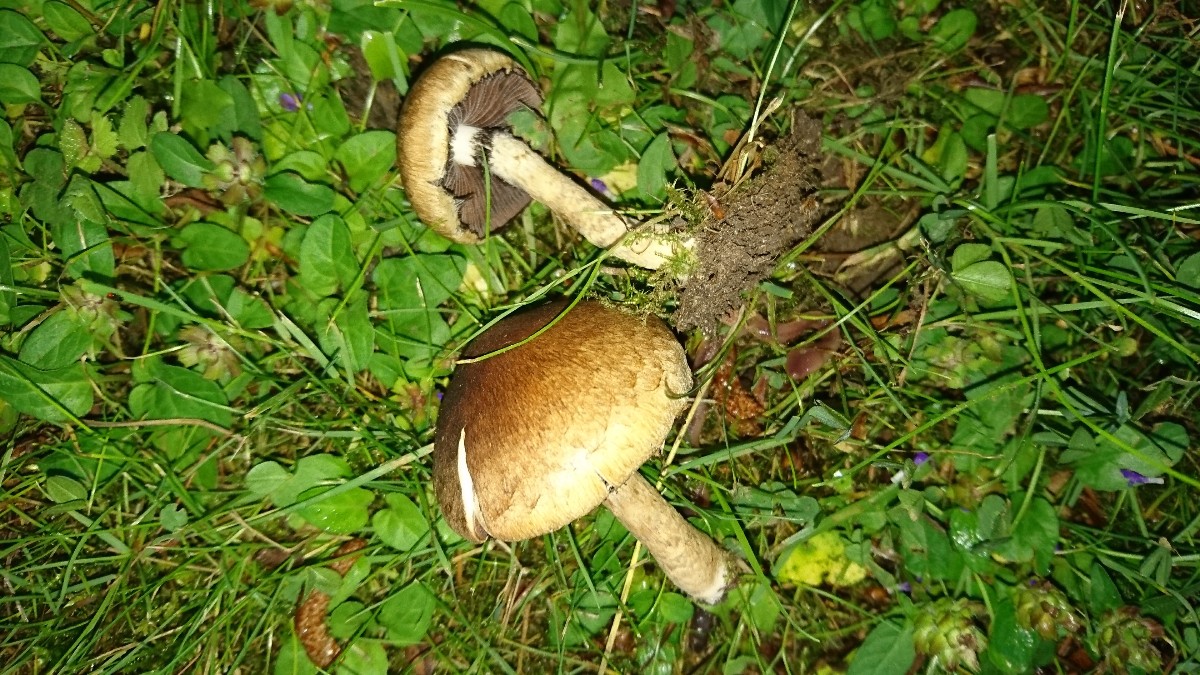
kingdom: Fungi
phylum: Basidiomycota
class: Agaricomycetes
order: Agaricales
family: Psathyrellaceae
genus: Lacrymaria
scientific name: Lacrymaria lacrymabunda
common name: grædende mørkhat
